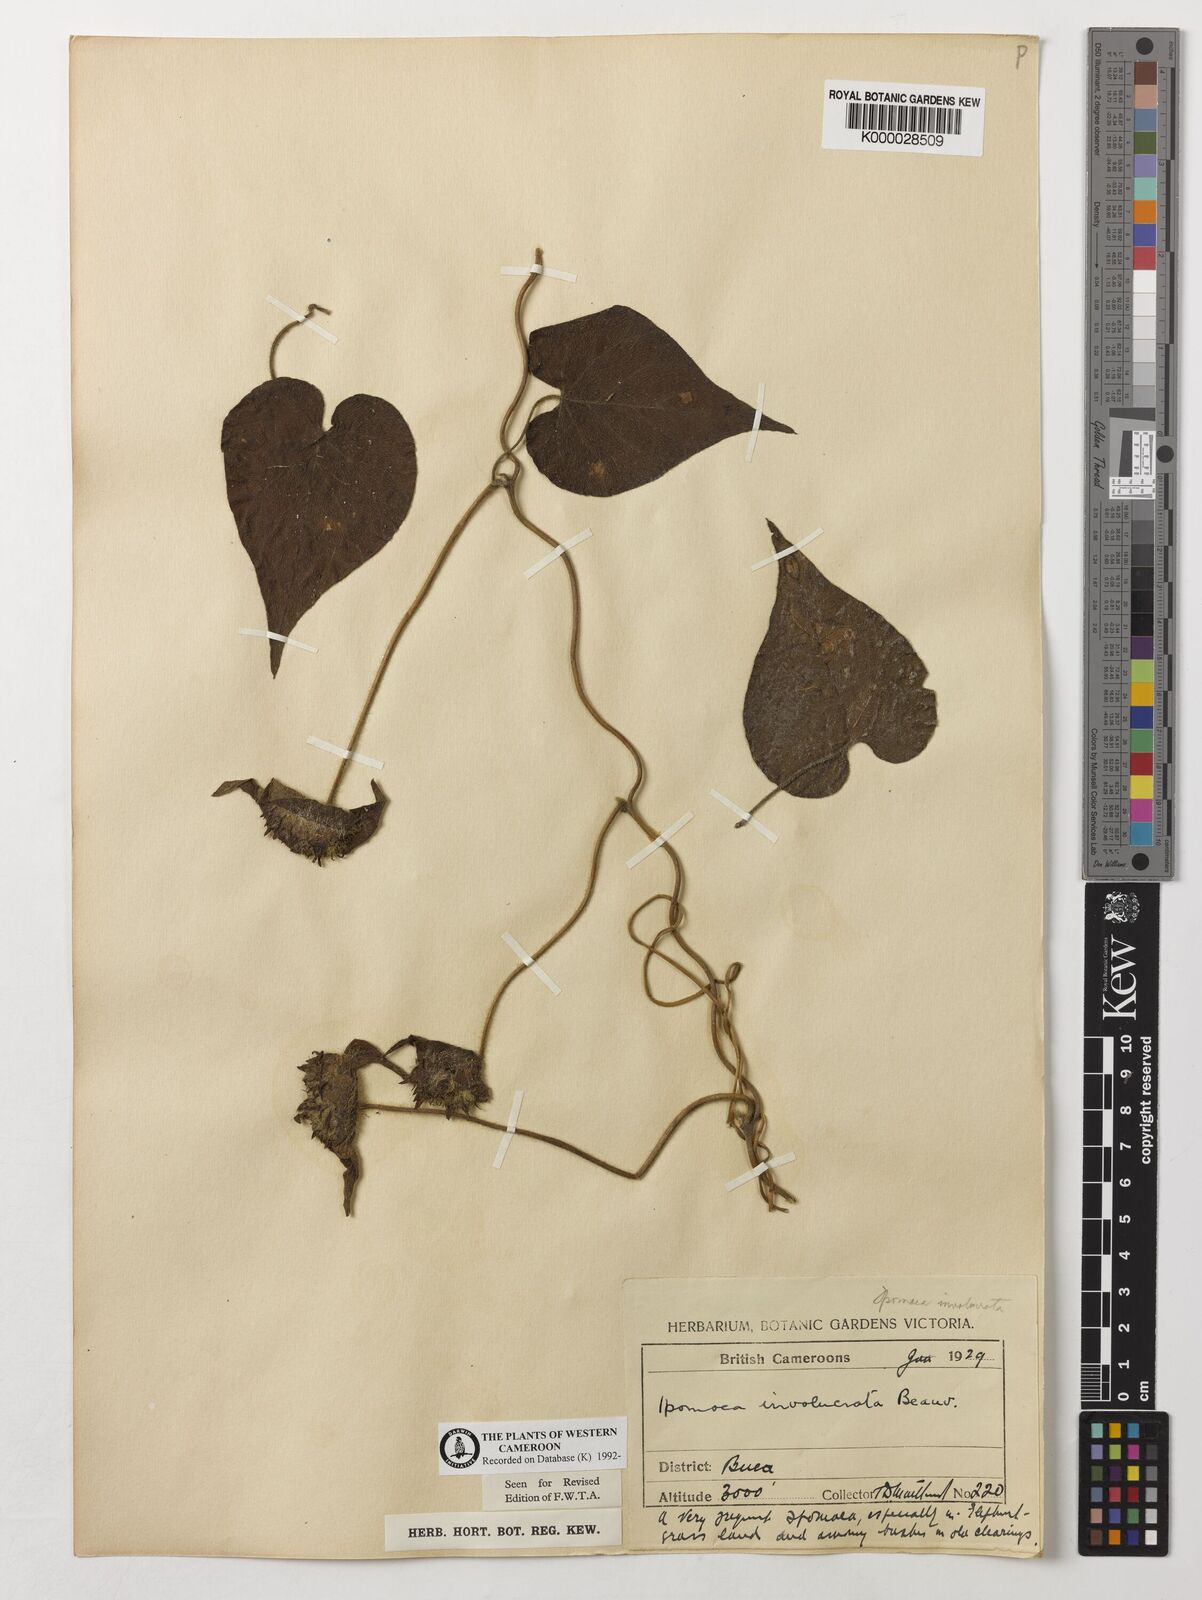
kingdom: Plantae
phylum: Tracheophyta
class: Magnoliopsida
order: Solanales
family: Convolvulaceae
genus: Ipomoea
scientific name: Ipomoea involucrata
